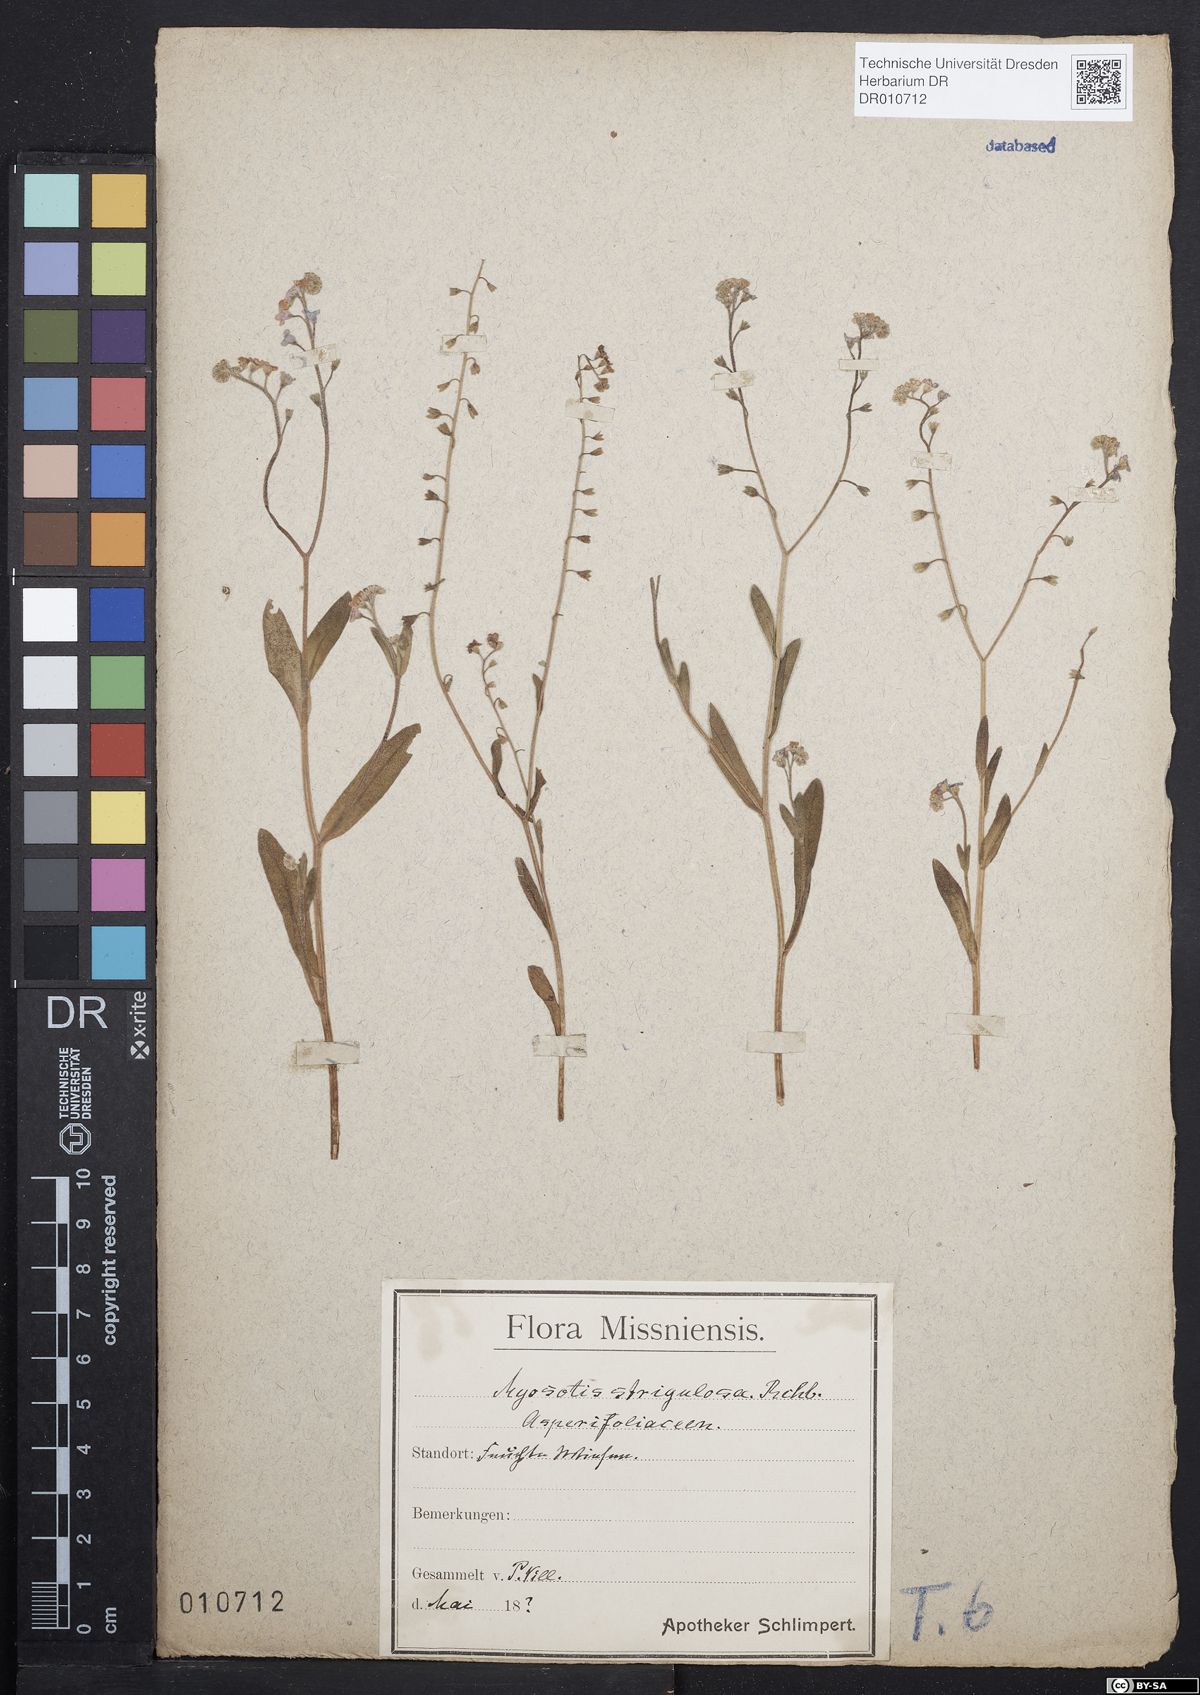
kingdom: Plantae
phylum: Tracheophyta
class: Magnoliopsida
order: Boraginales
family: Boraginaceae
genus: Myosotis
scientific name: Myosotis scorpioides
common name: Water forget-me-not
